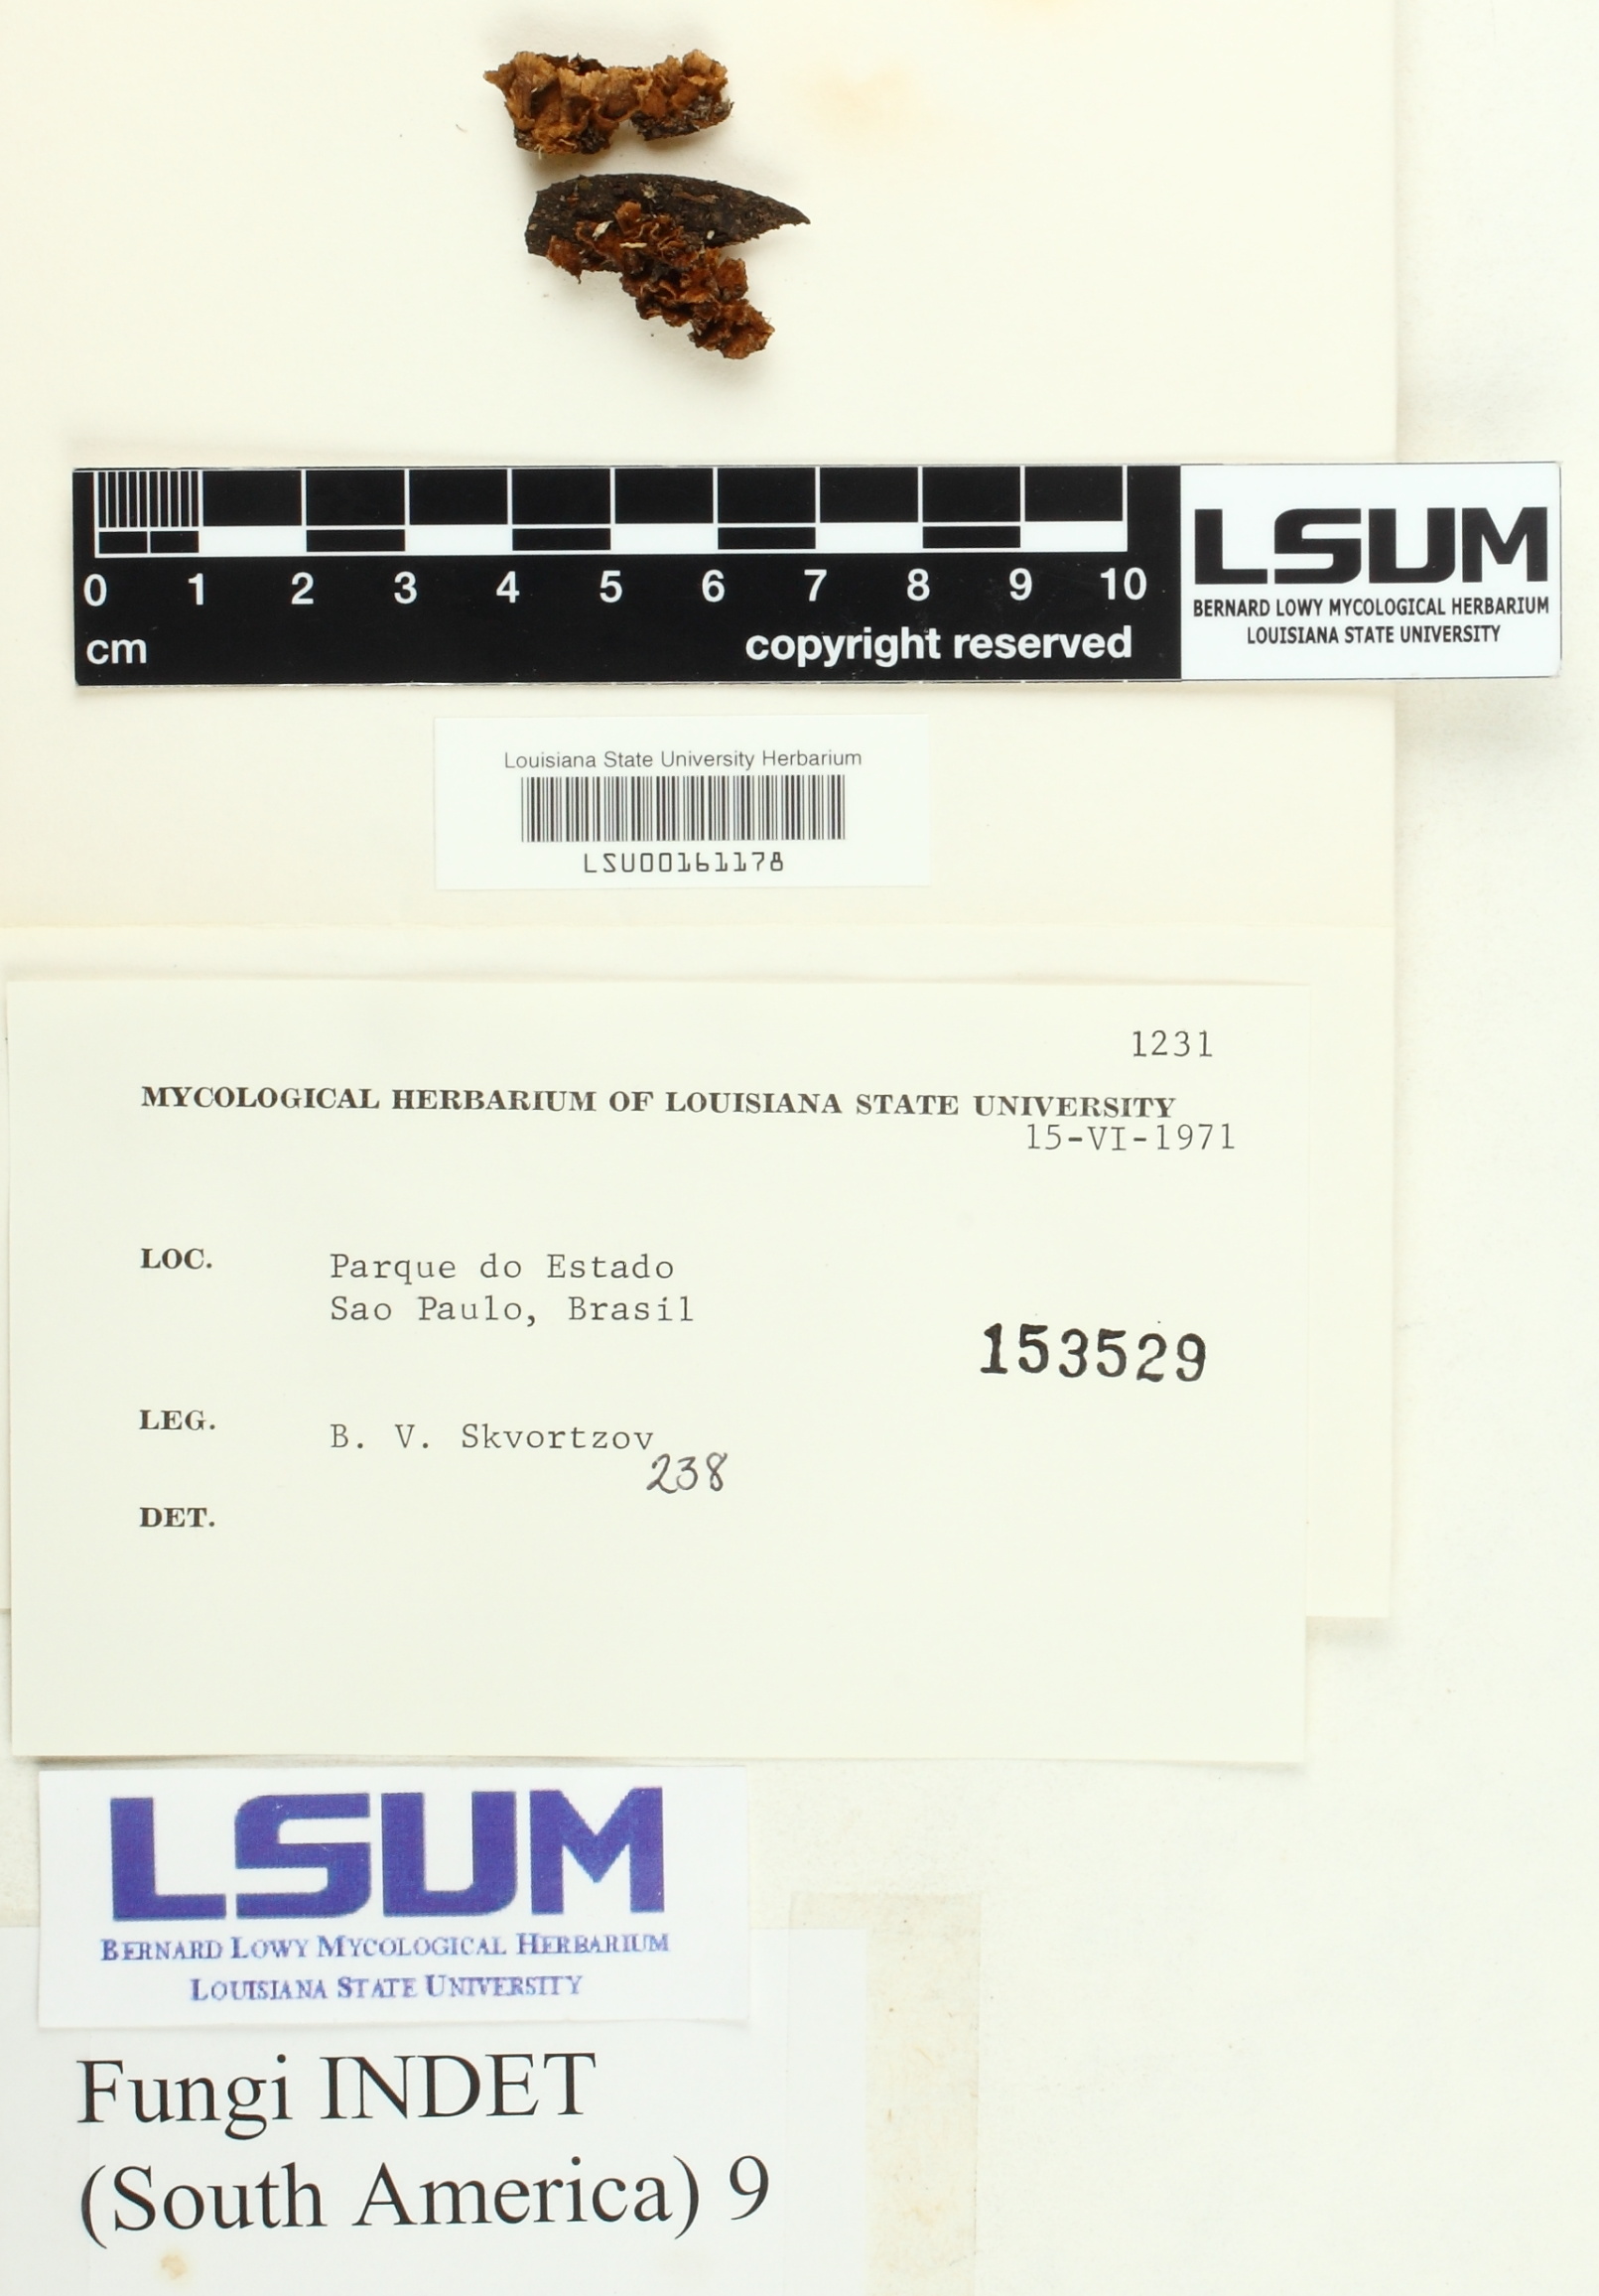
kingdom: Fungi
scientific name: Fungi
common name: Fungi
